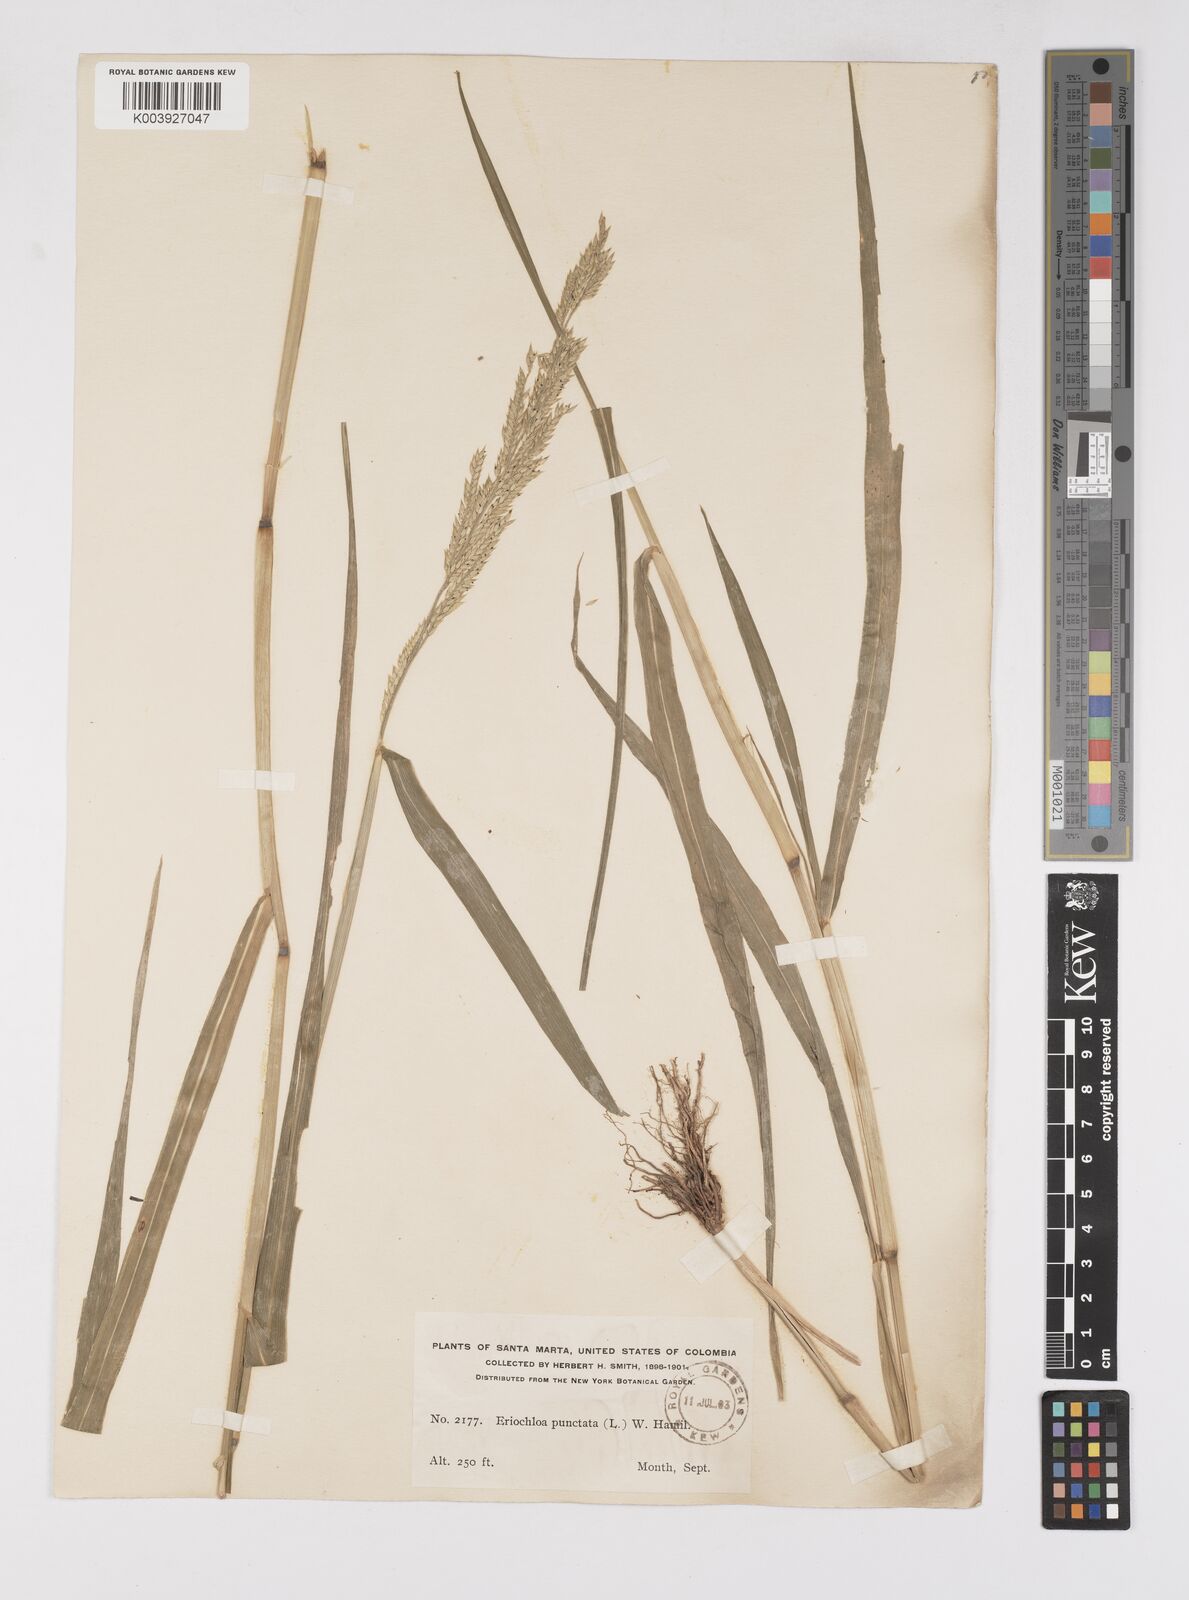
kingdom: Plantae
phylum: Tracheophyta
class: Liliopsida
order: Poales
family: Poaceae
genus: Eriochloa
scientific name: Eriochloa punctata
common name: Louisiana cupgrass
